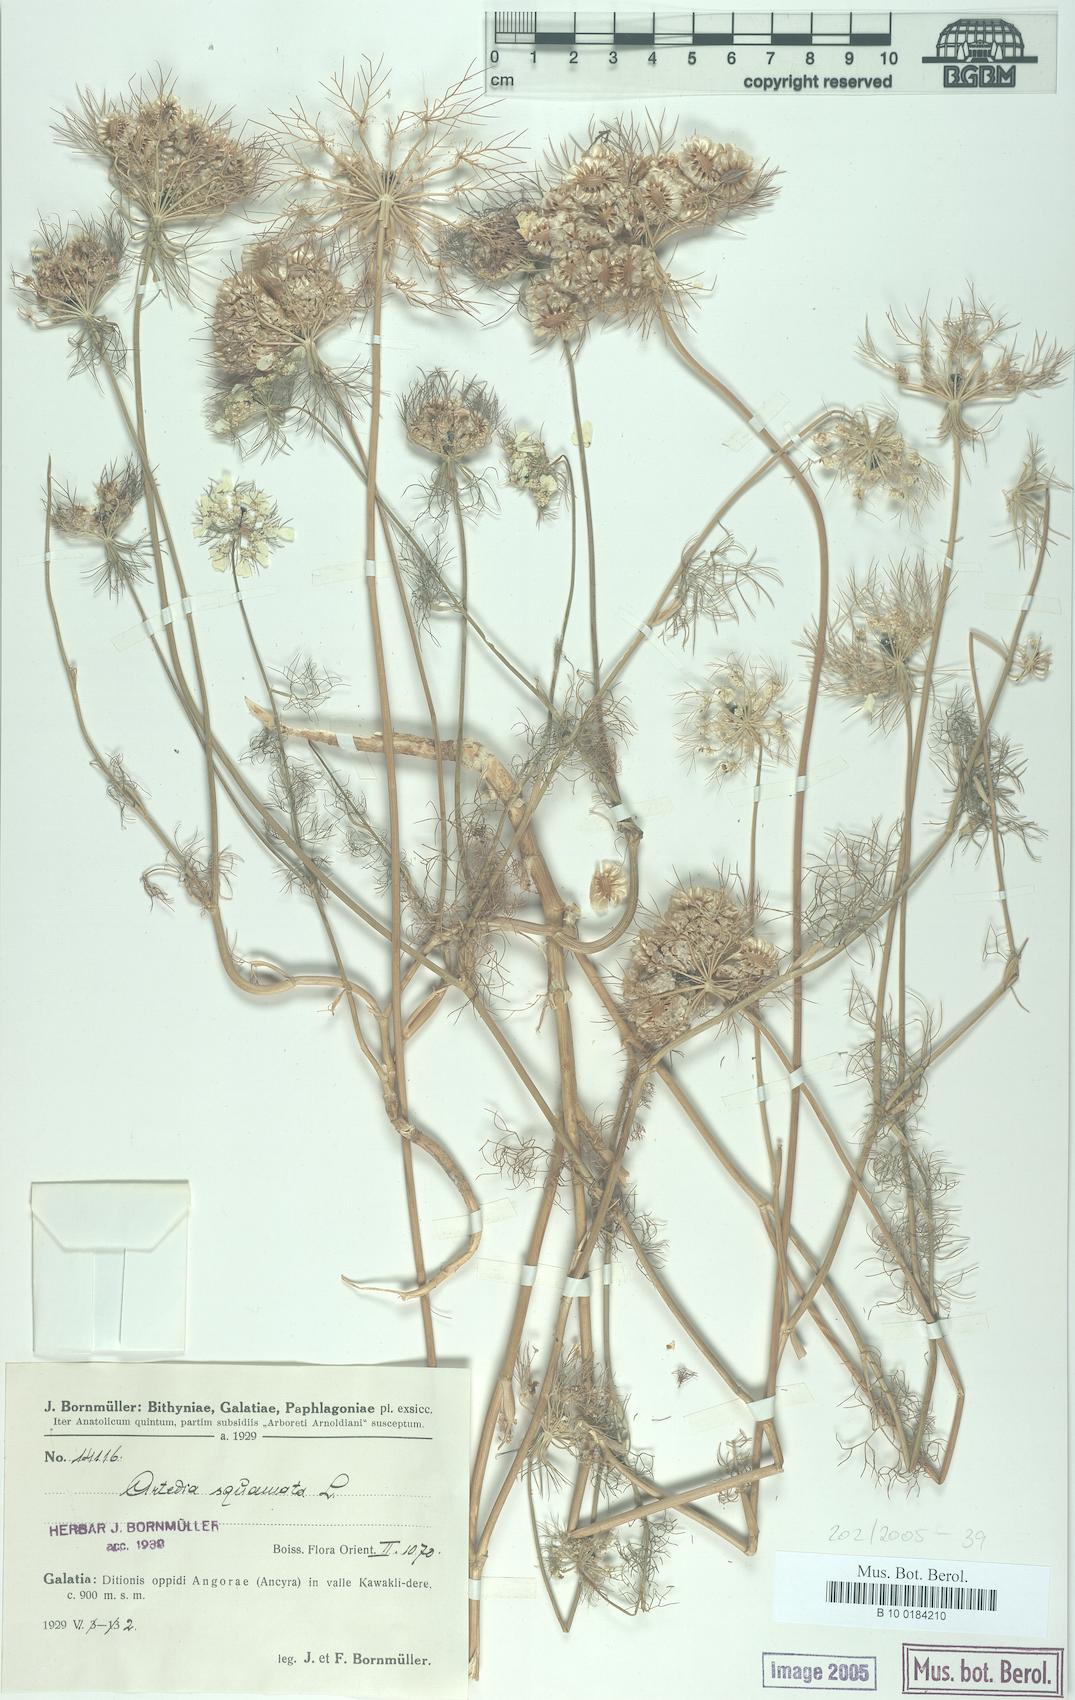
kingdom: Plantae
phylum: Tracheophyta
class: Magnoliopsida
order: Apiales
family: Apiaceae
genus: Artedia
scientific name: Artedia squamata
